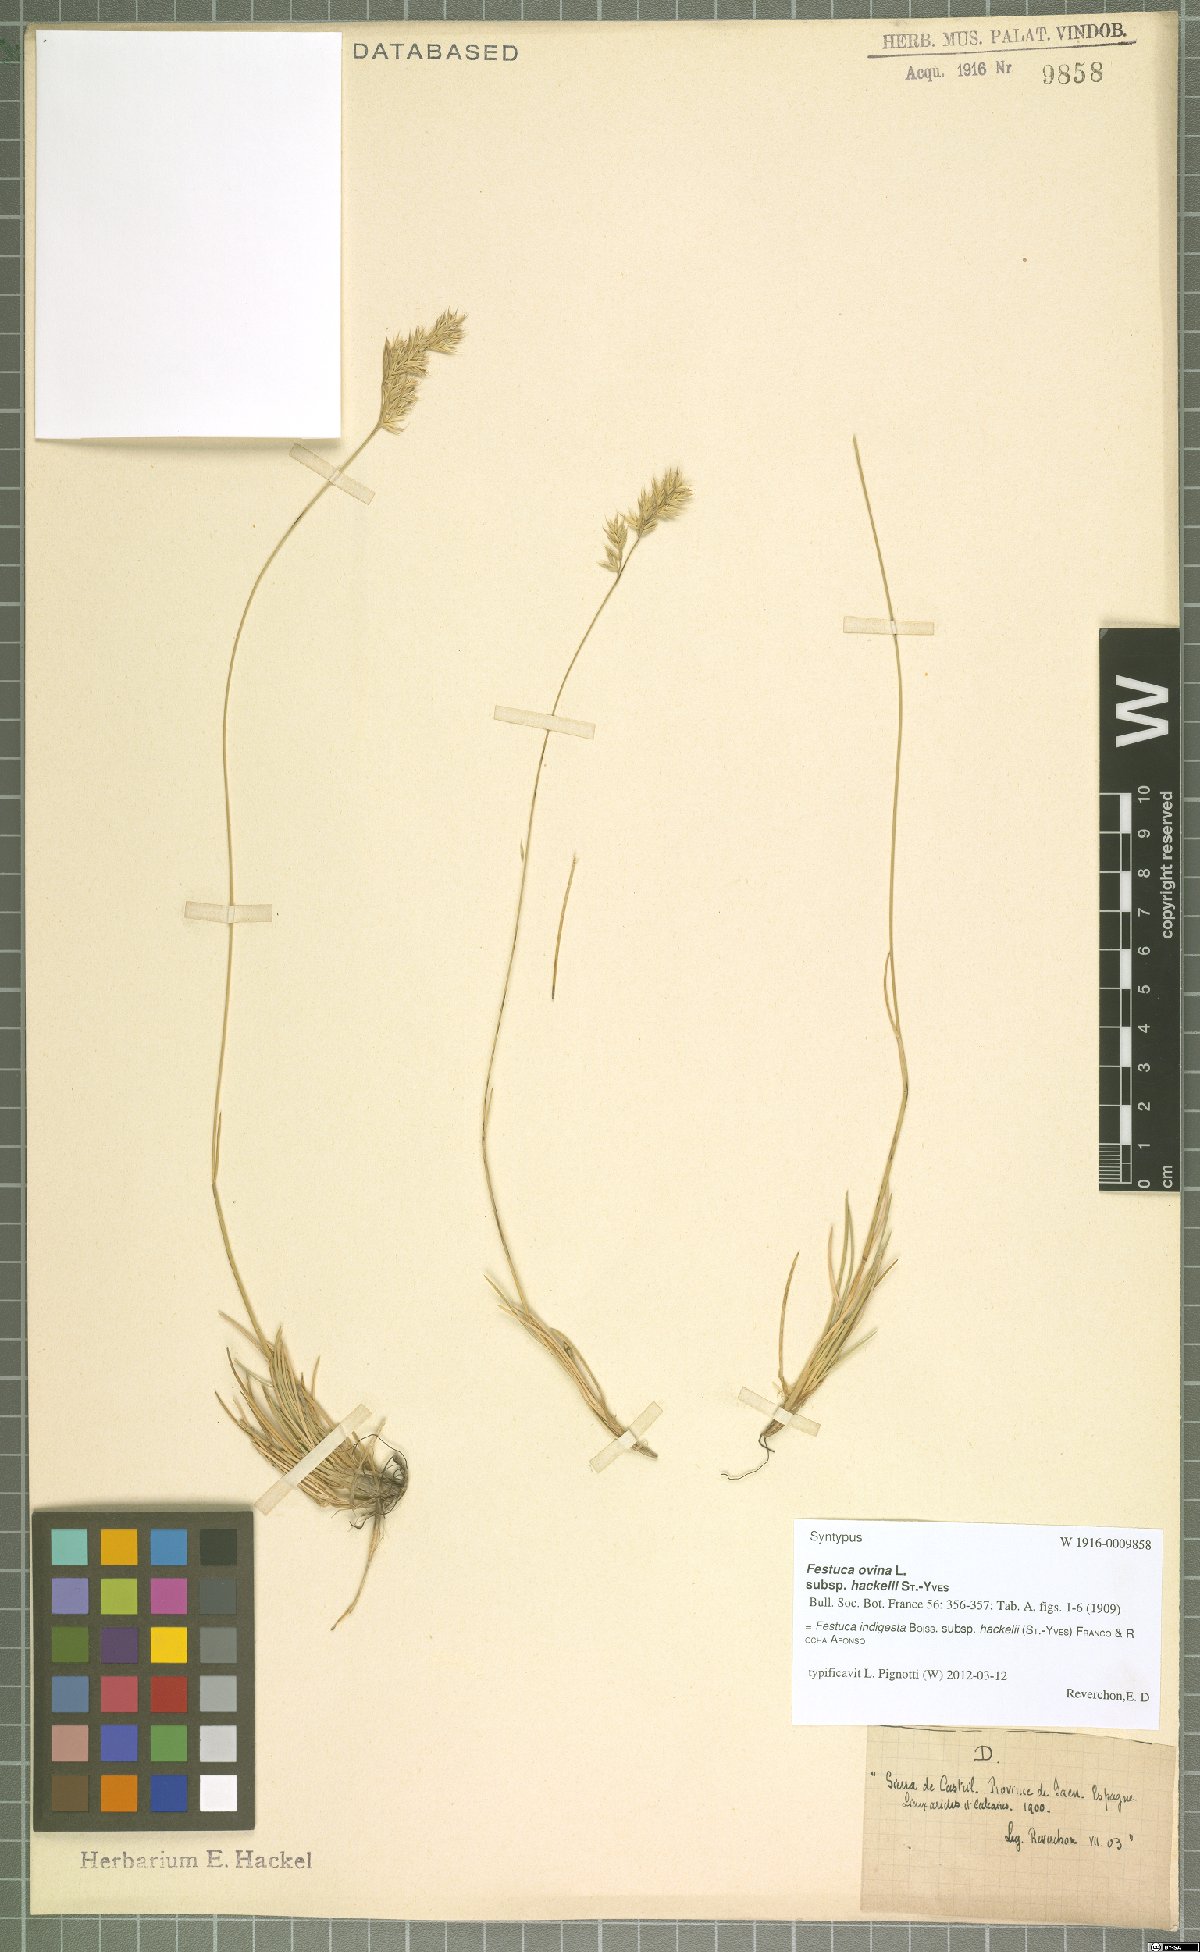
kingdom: Plantae
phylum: Tracheophyta
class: Liliopsida
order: Poales
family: Poaceae
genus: Festuca
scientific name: Festuca indigesta
